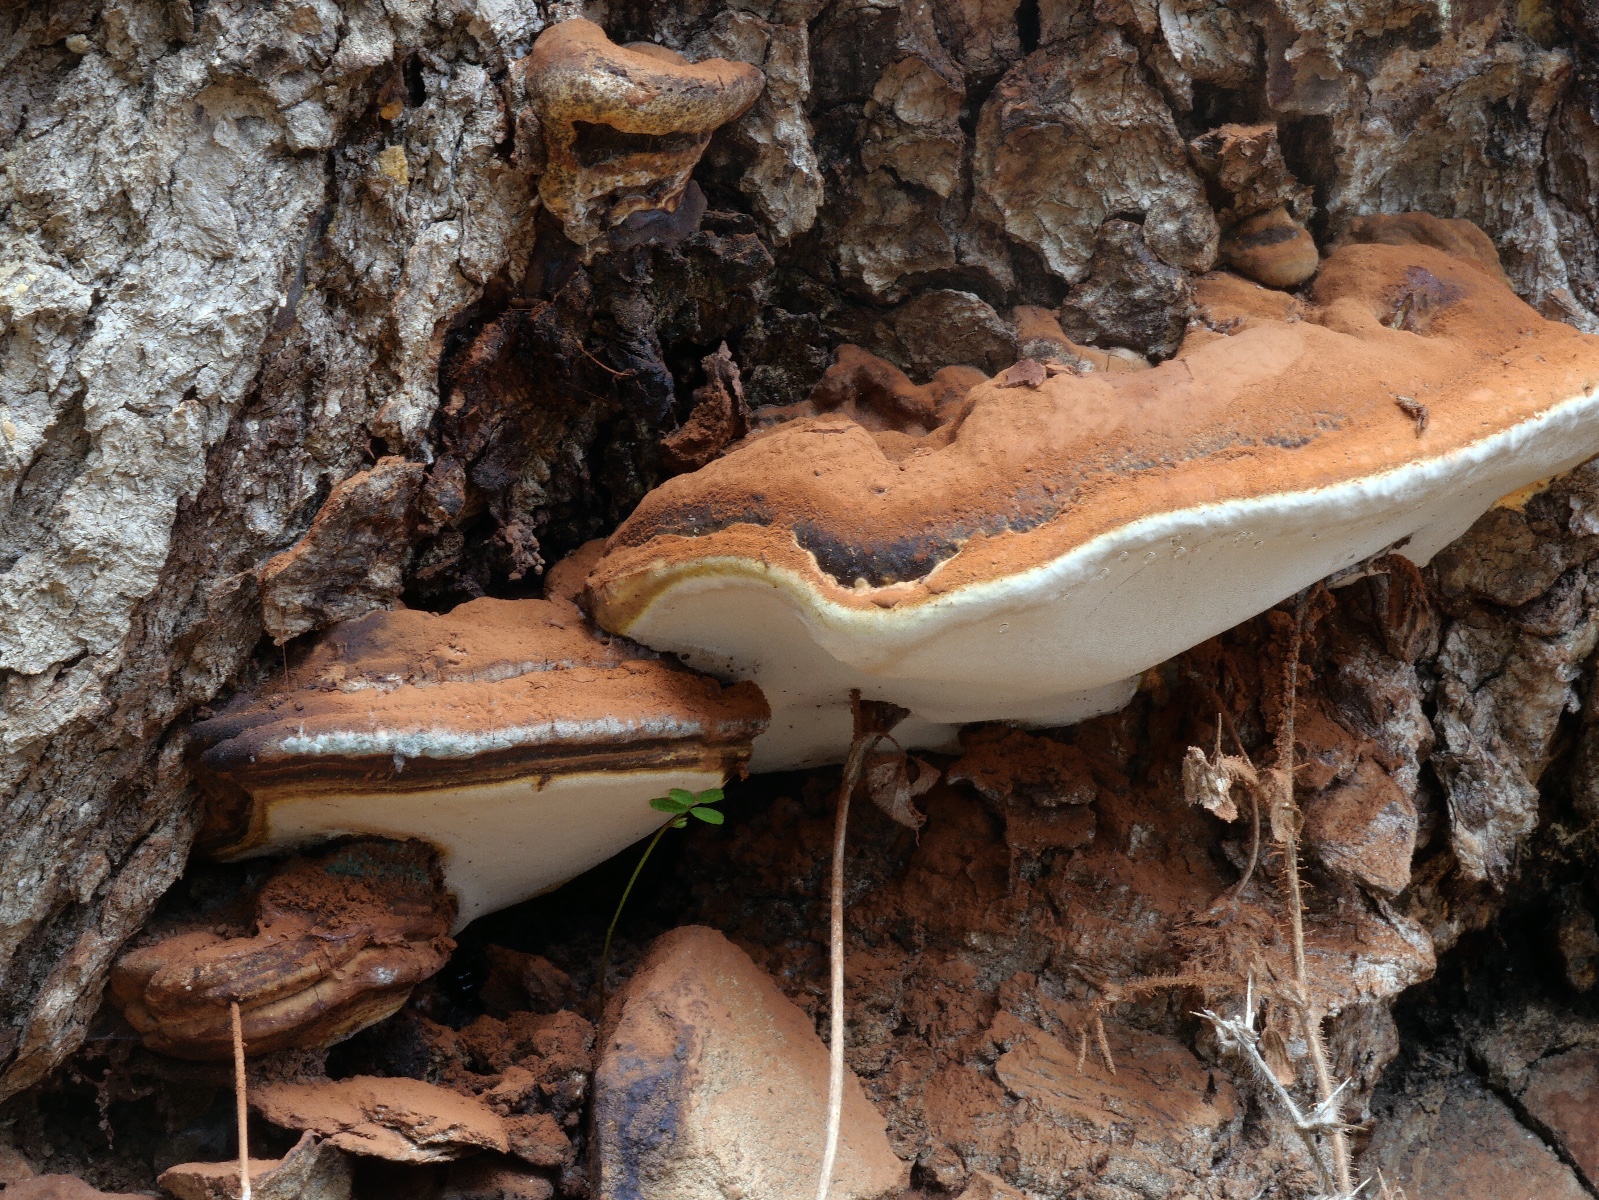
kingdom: Fungi
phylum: Basidiomycota
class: Agaricomycetes
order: Polyporales
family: Polyporaceae
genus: Ganoderma
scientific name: Ganoderma
